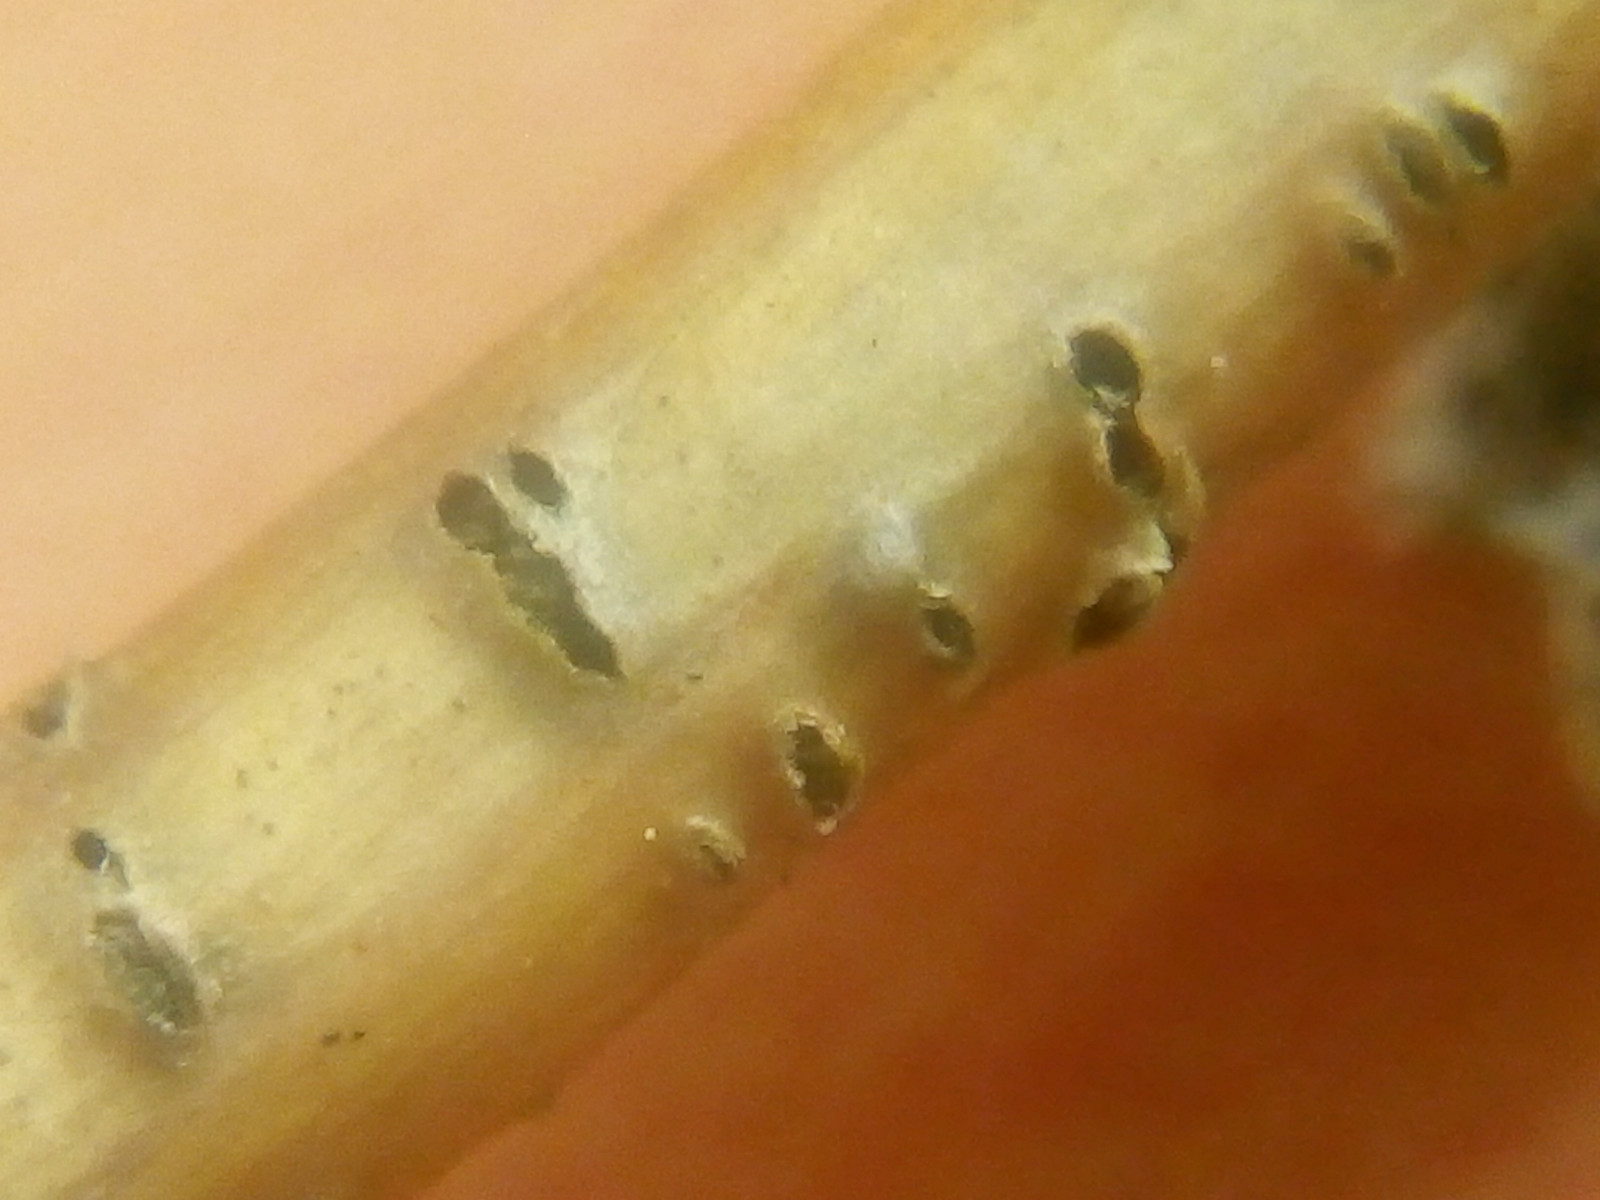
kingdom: Fungi
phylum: Ascomycota
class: Sordariomycetes
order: Diaporthales
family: Diaporthaceae
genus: Diaporthe
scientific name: Diaporthe caraganae
